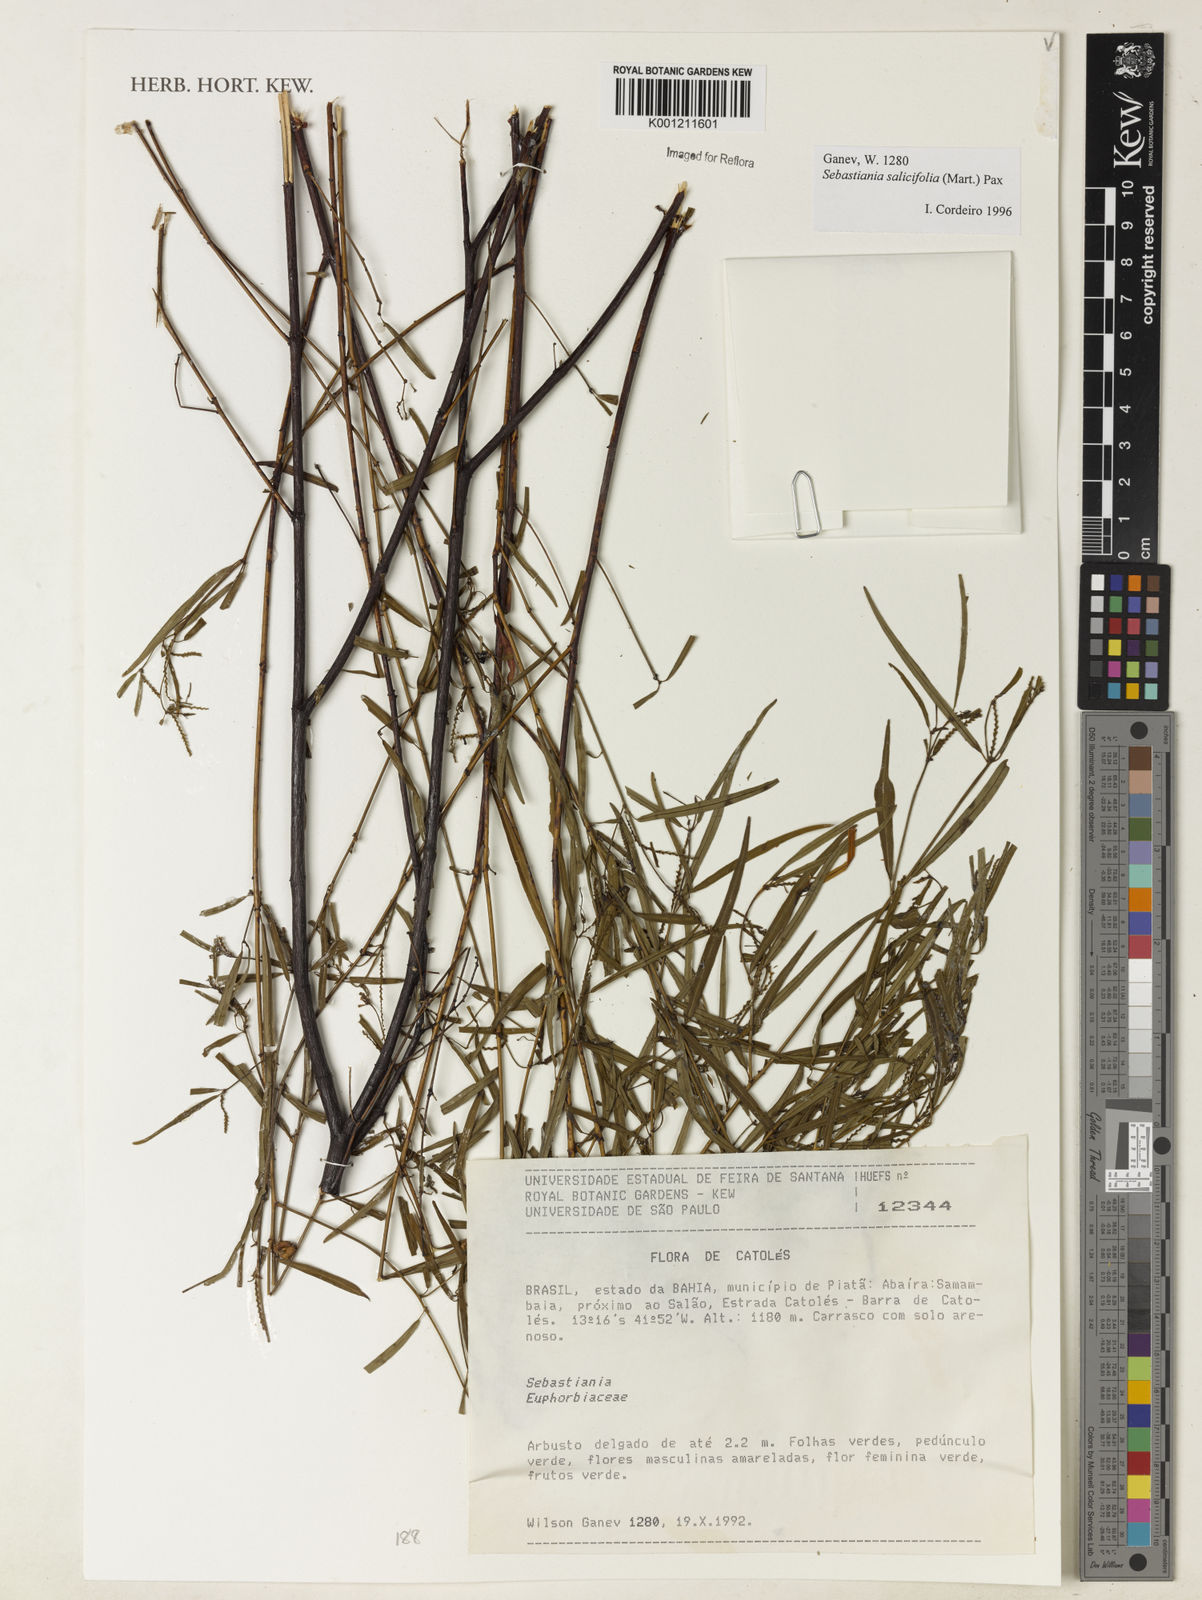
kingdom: Plantae
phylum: Tracheophyta
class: Magnoliopsida
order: Malpighiales
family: Euphorbiaceae
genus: Microstachys
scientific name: Microstachys
